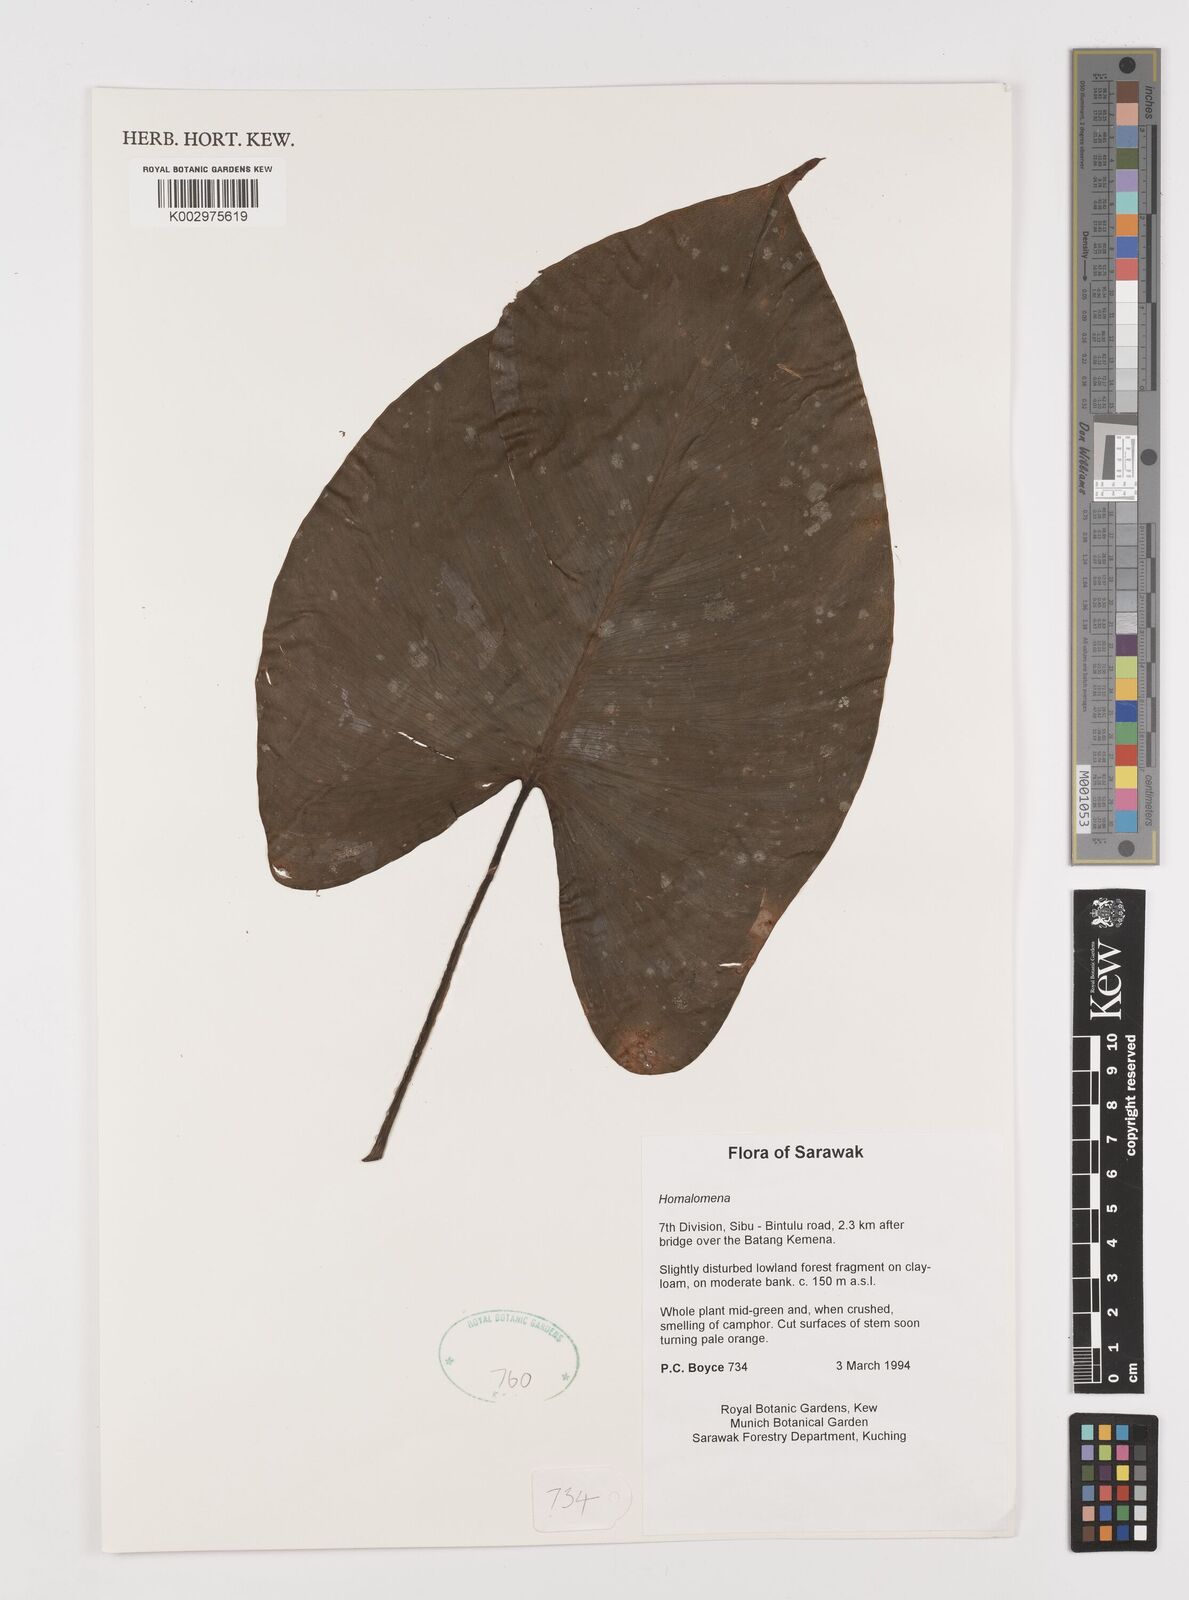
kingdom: Plantae
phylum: Tracheophyta
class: Liliopsida
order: Alismatales
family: Araceae
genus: Homalomena
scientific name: Homalomena
